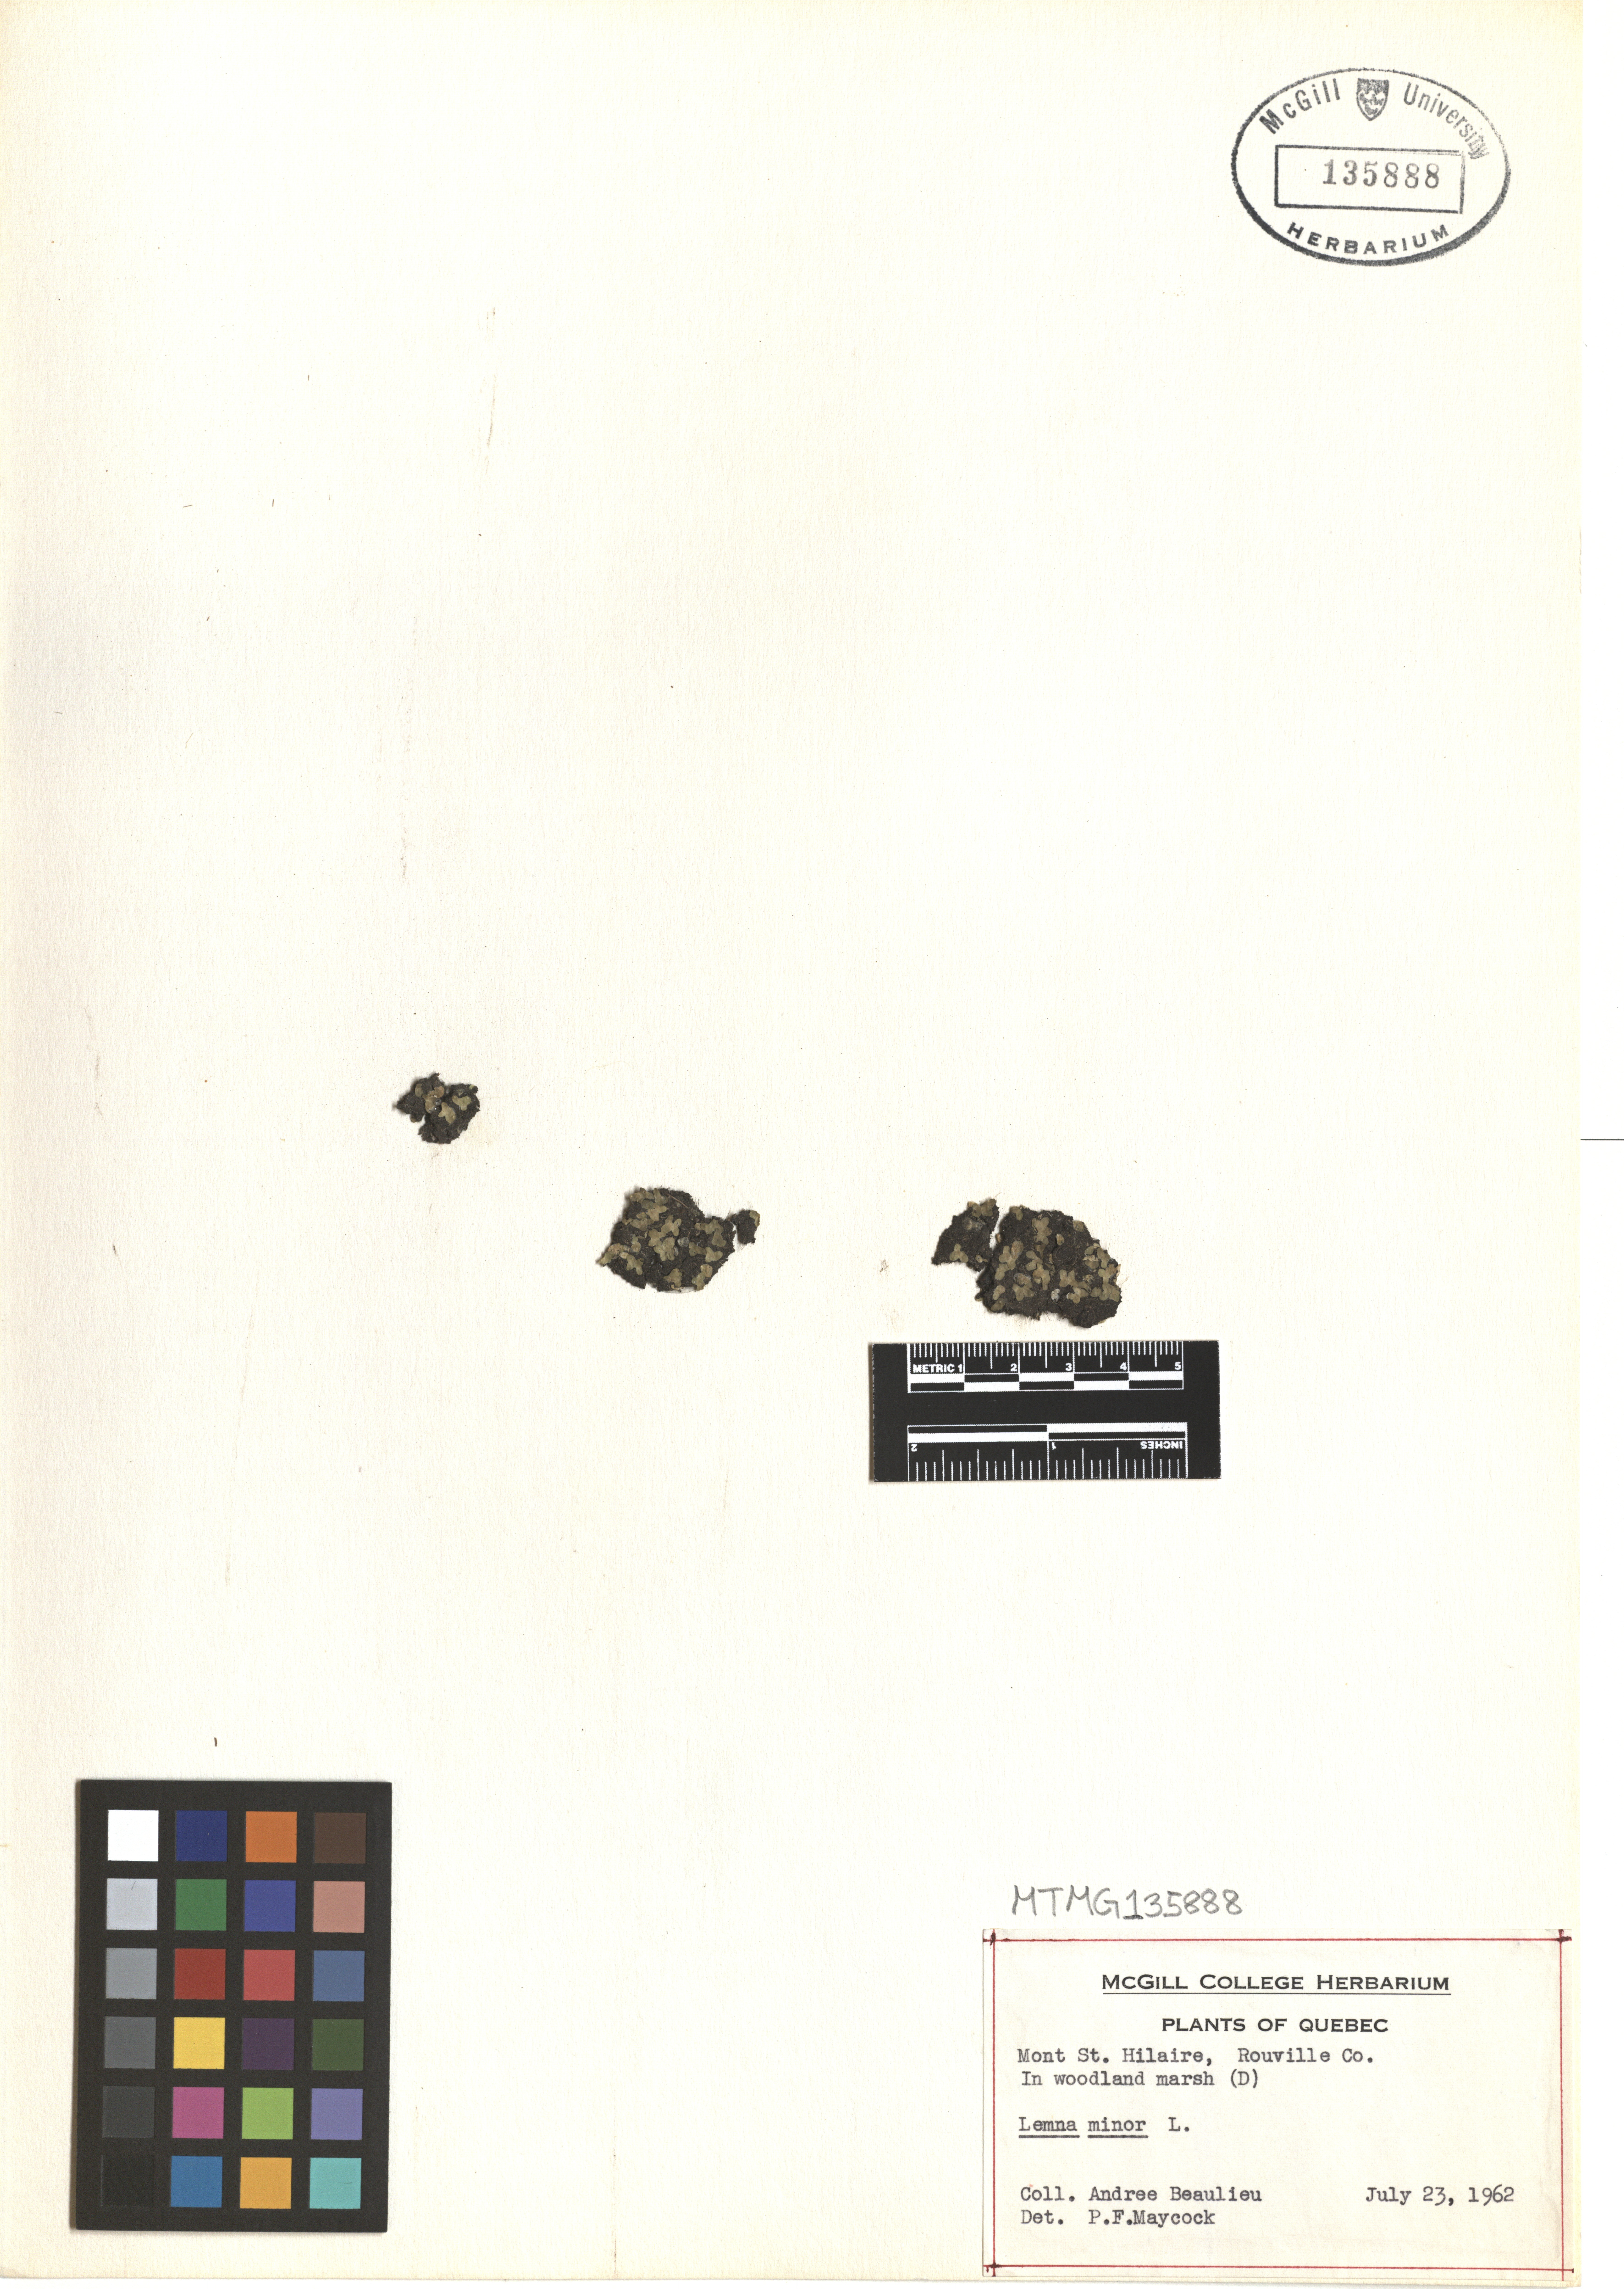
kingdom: Plantae
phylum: Tracheophyta
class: Liliopsida
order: Alismatales
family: Araceae
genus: Lemna
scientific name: Lemna minor
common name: Common duckweed
